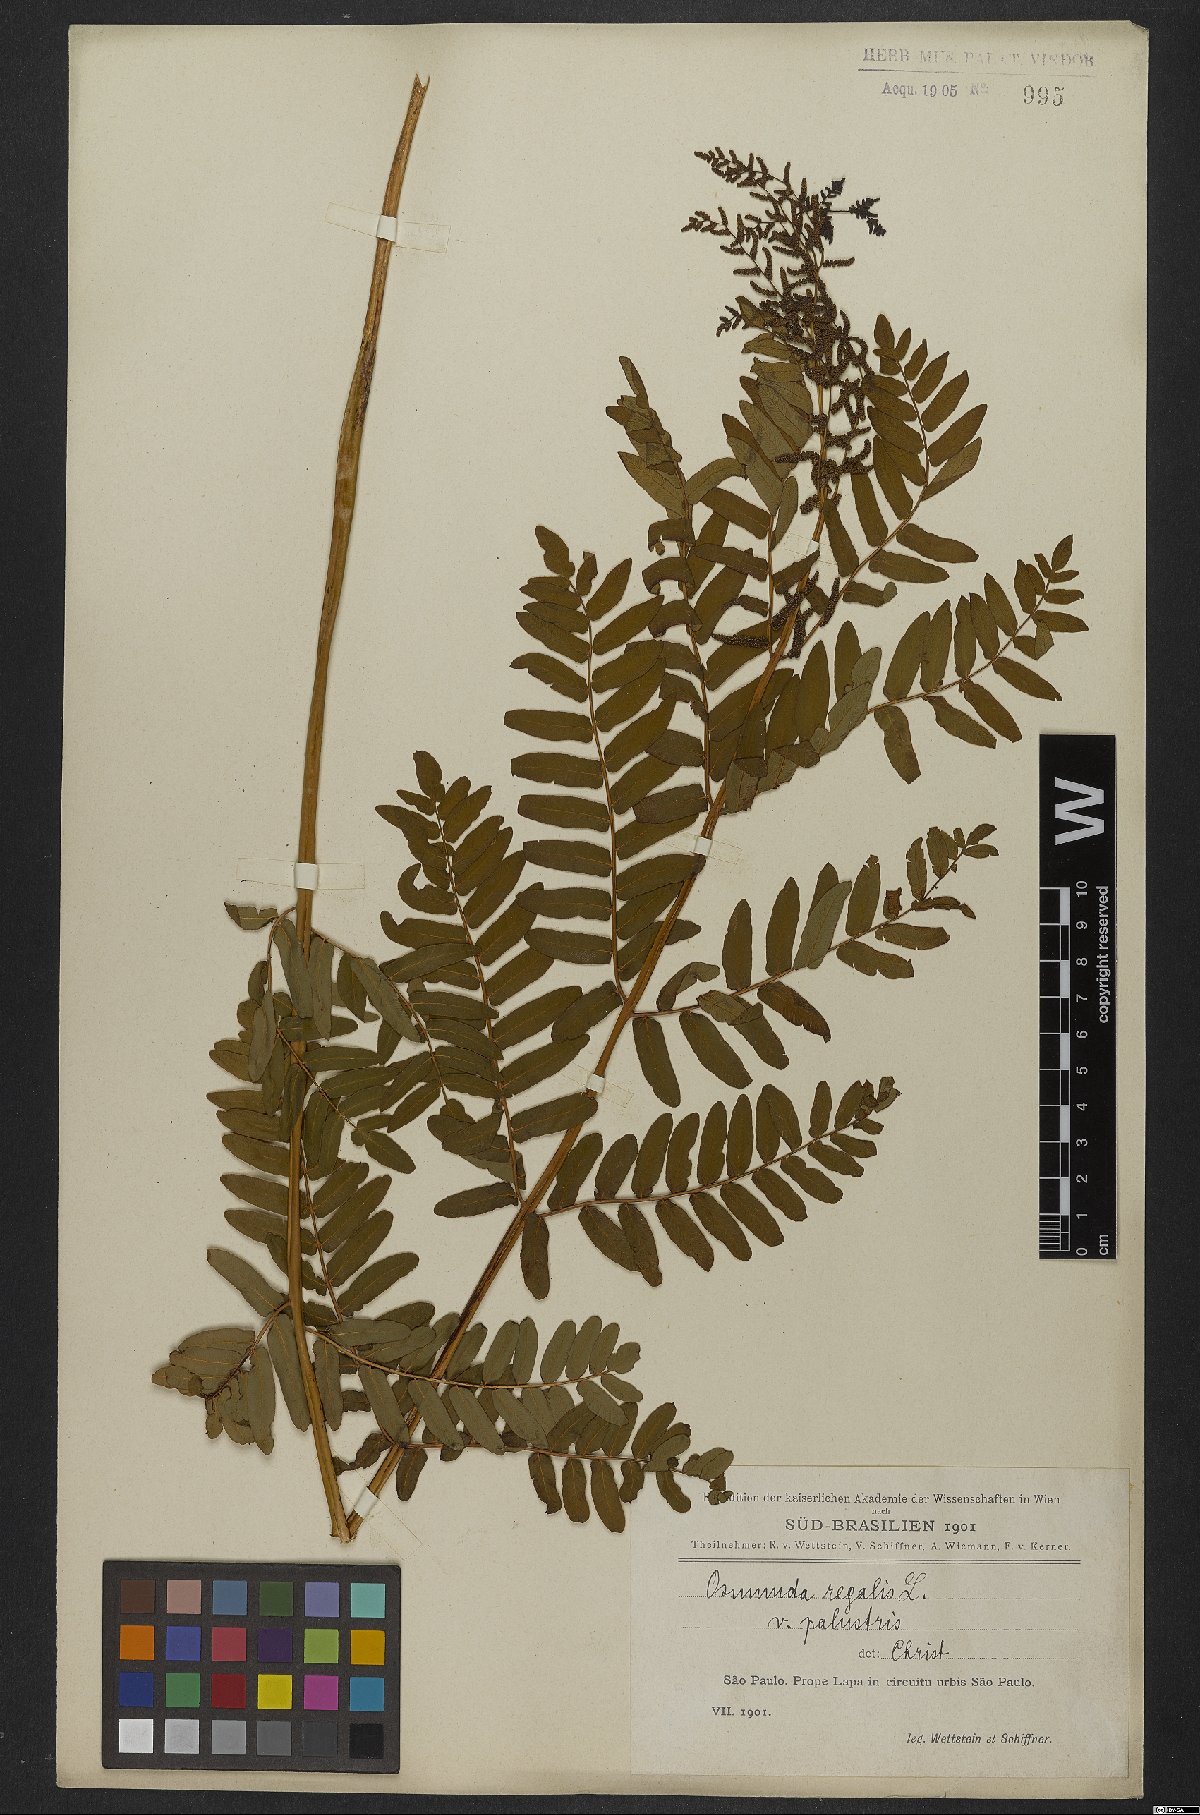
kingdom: Plantae
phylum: Tracheophyta
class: Polypodiopsida
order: Osmundales
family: Osmundaceae
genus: Osmunda
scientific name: Osmunda regalis
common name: Royal fern
